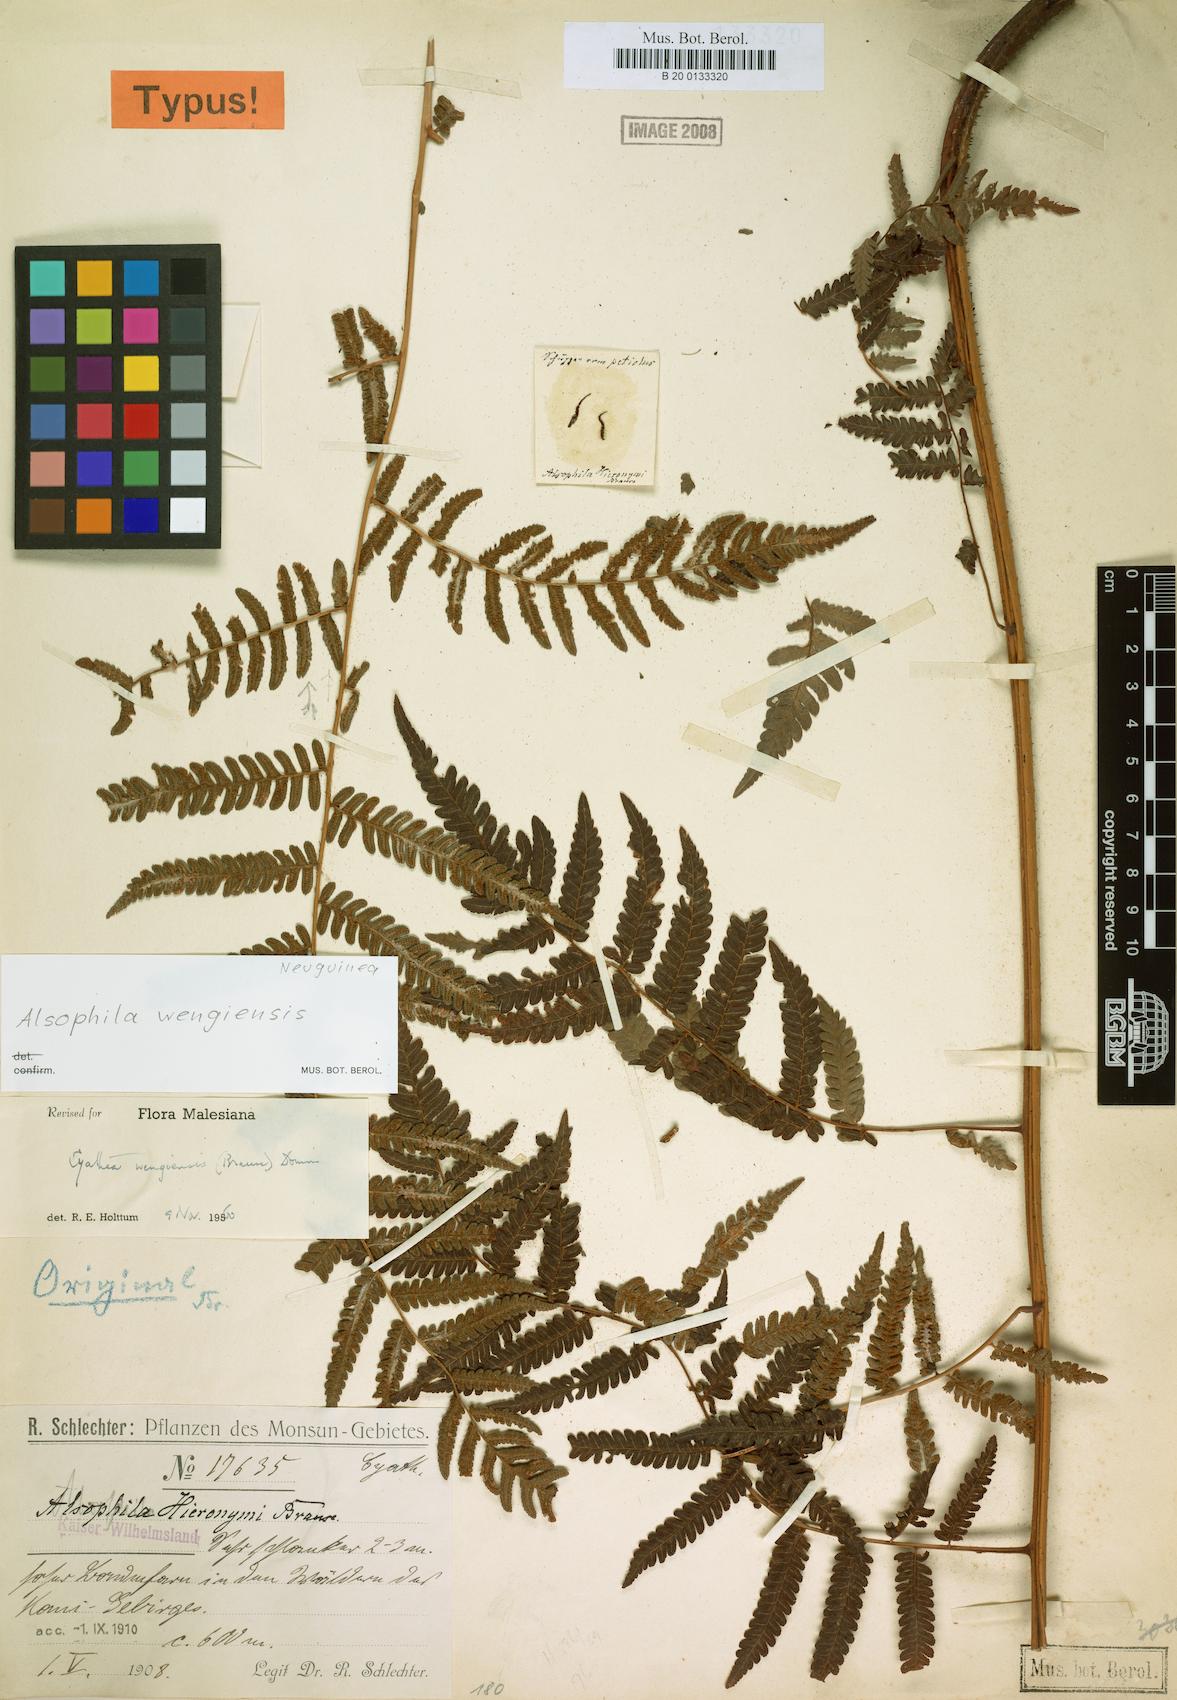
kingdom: Plantae
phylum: Tracheophyta
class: Polypodiopsida
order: Cyatheales
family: Cyatheaceae
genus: Alsophila
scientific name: Alsophila woodwardioides
